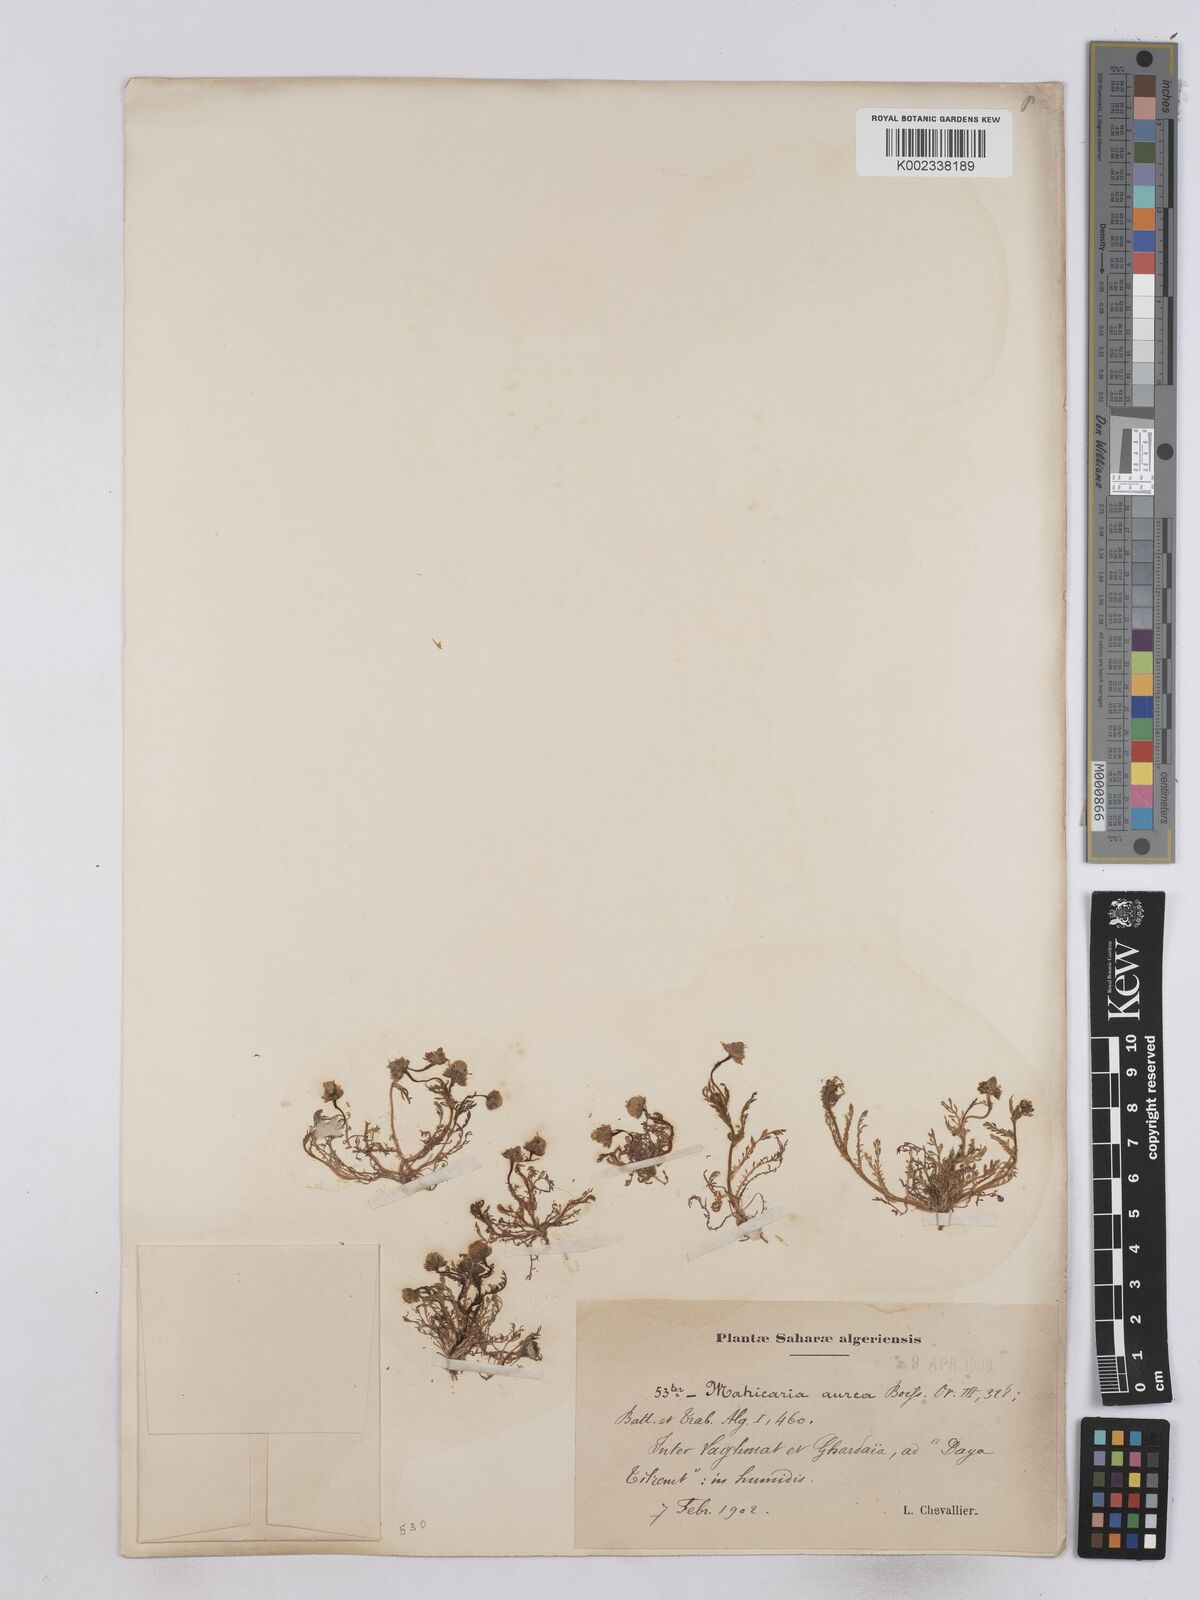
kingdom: Plantae
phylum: Tracheophyta
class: Magnoliopsida
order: Asterales
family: Asteraceae
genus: Matricaria
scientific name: Matricaria aurea
